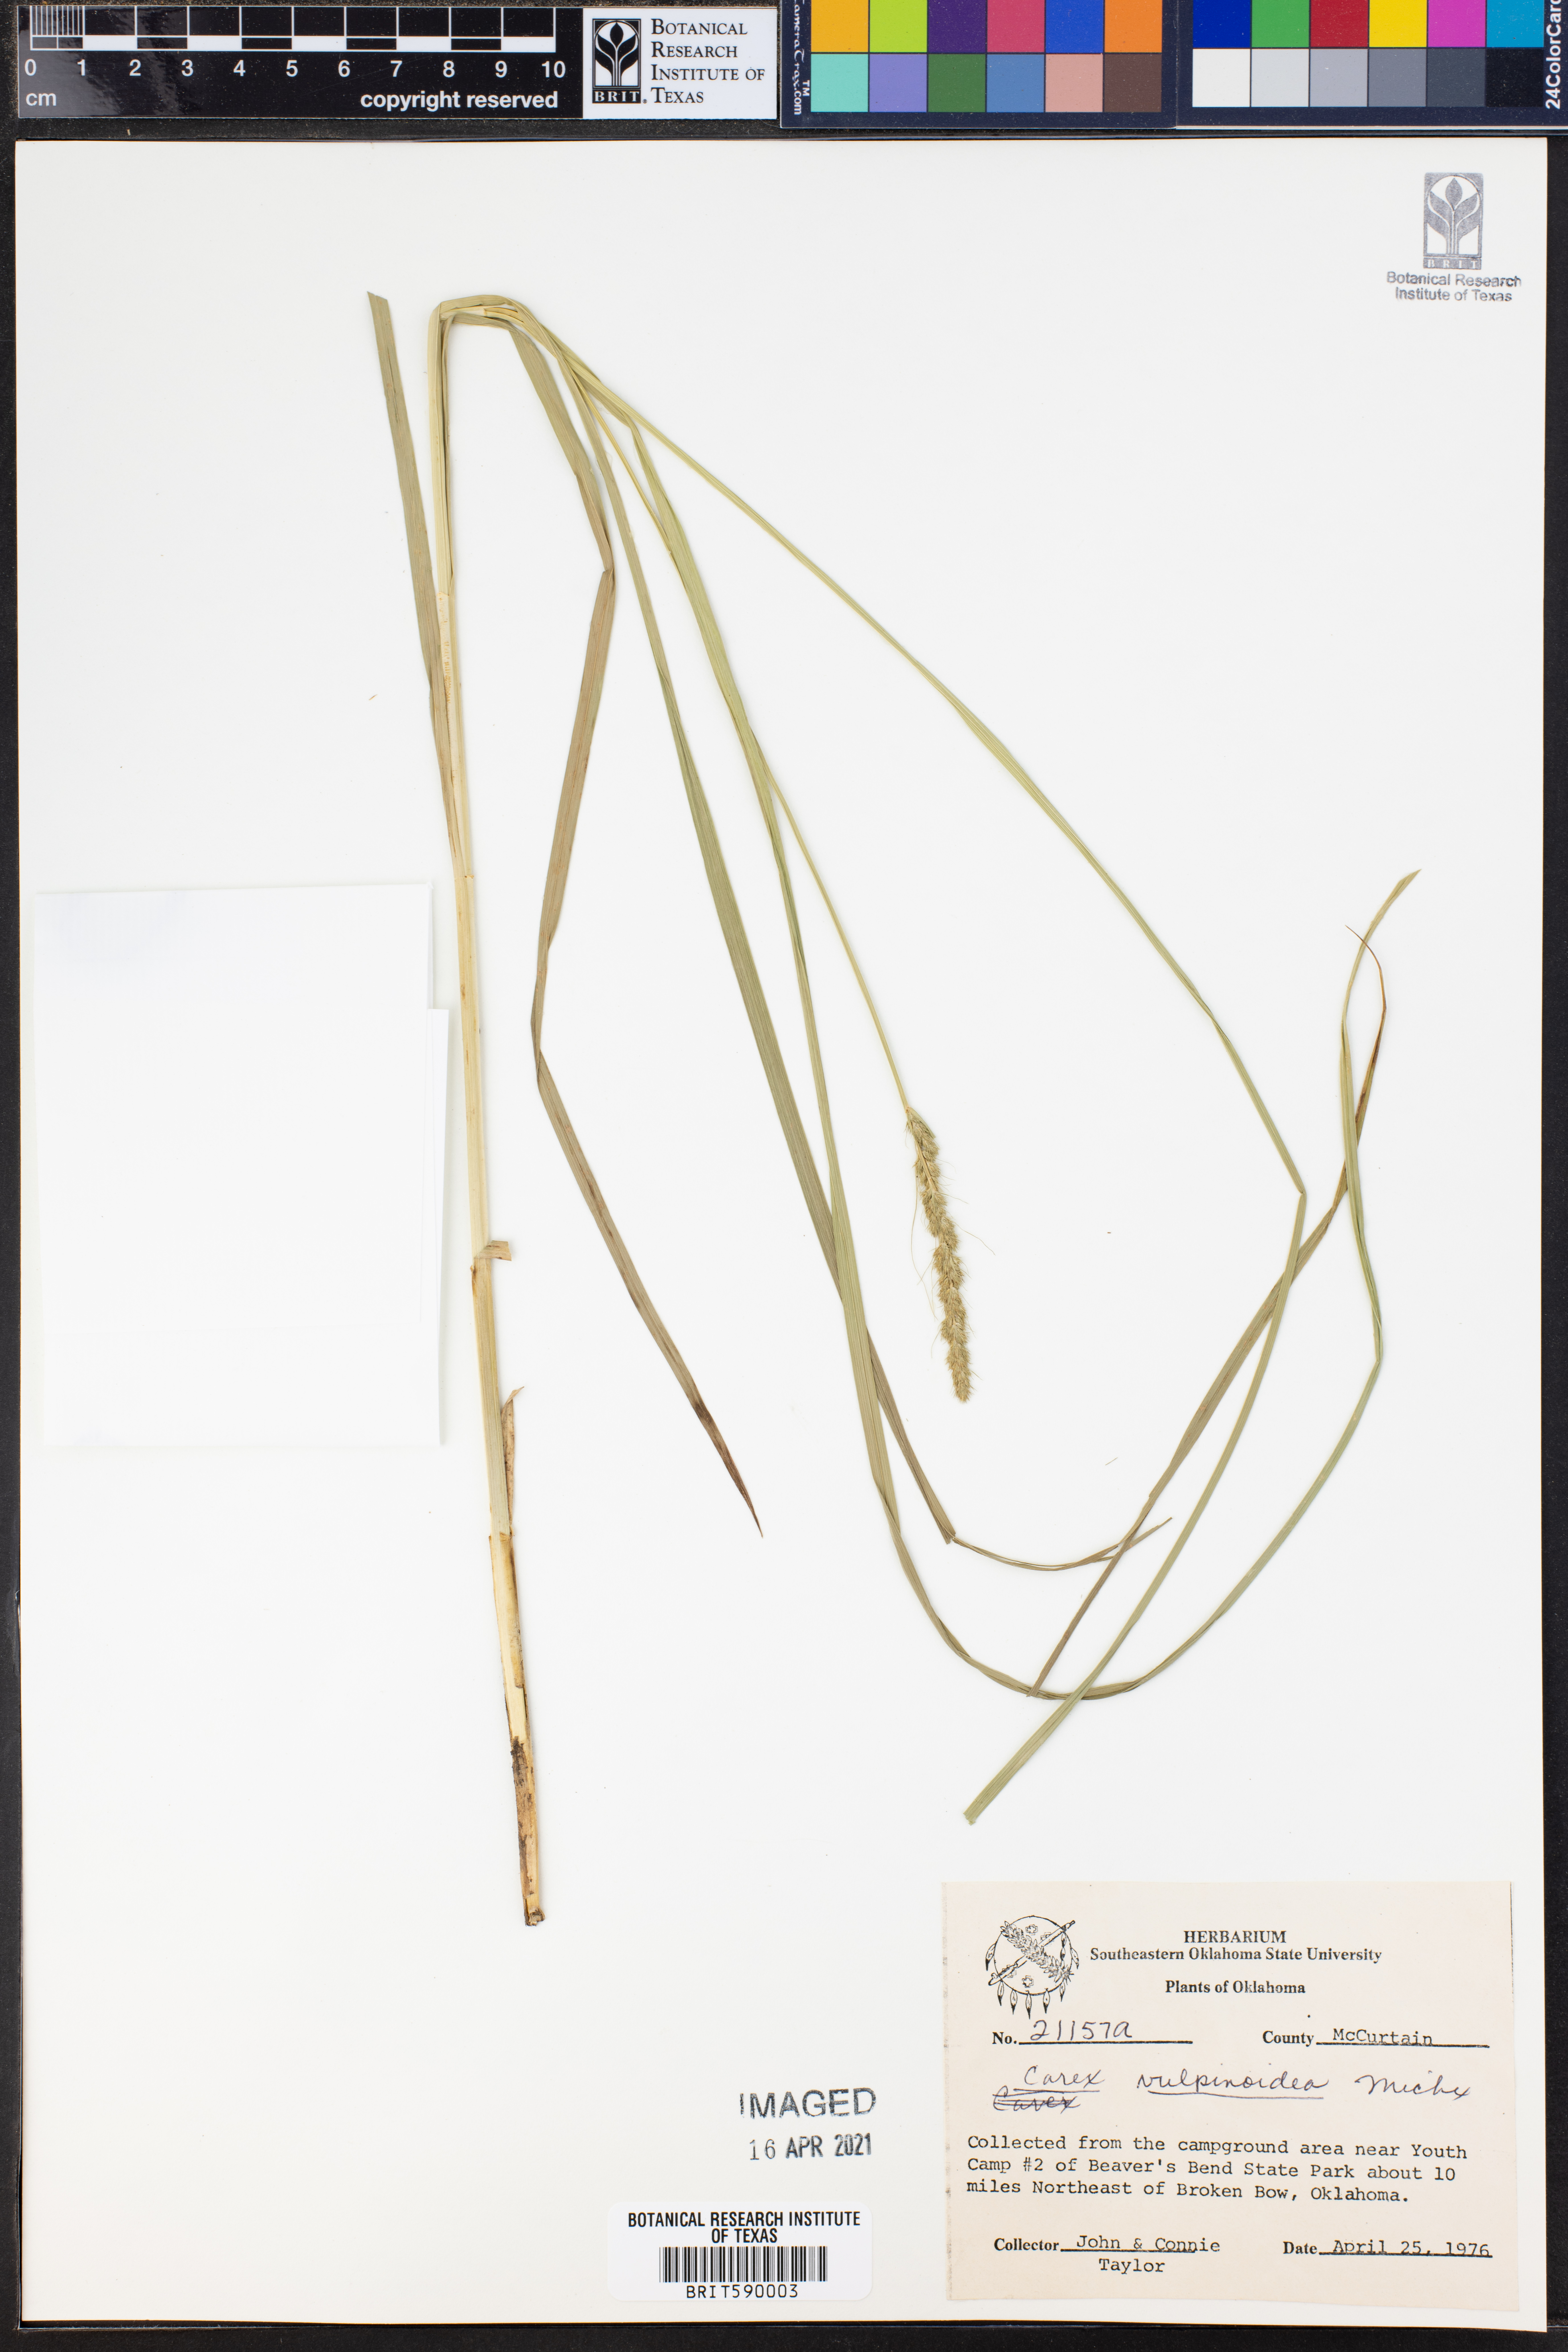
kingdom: Plantae
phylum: Tracheophyta
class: Liliopsida
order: Poales
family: Cyperaceae
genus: Carex
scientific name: Carex vulpinoidea
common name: American fox-sedge
